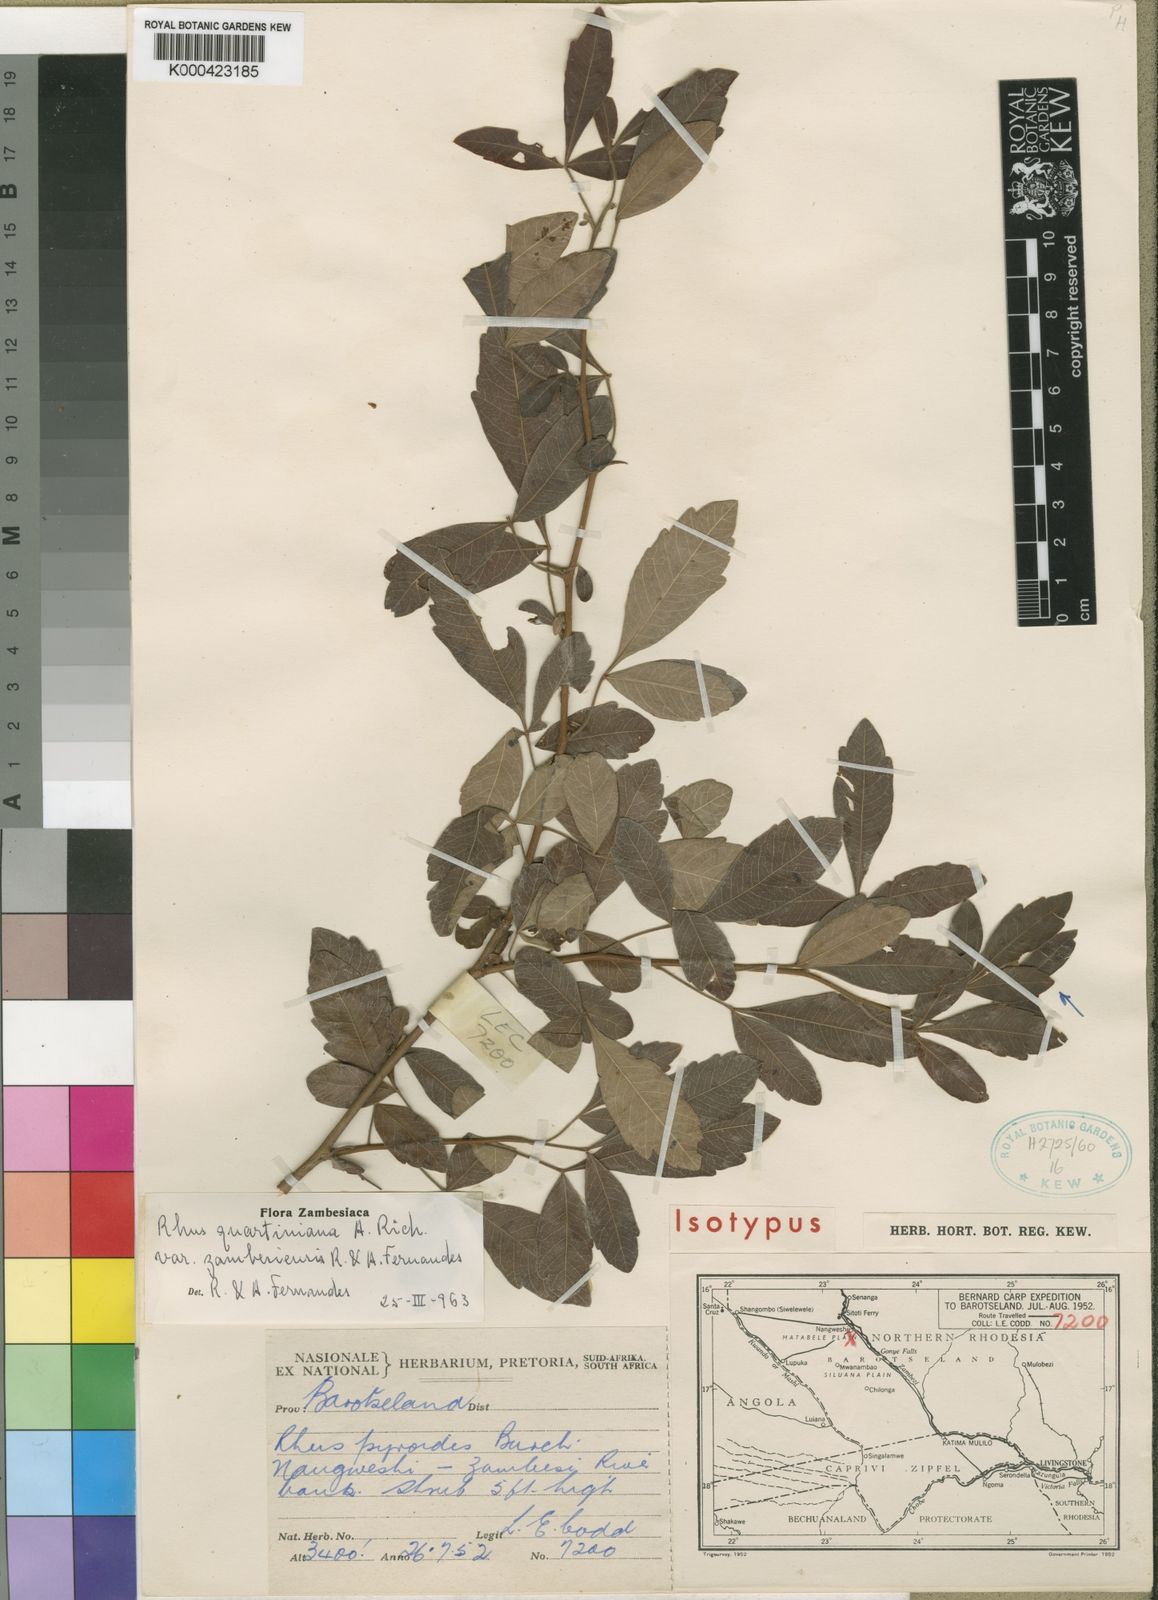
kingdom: Plantae
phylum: Tracheophyta
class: Magnoliopsida
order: Sapindales
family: Anacardiaceae
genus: Searsia
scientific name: Searsia quartiniana
